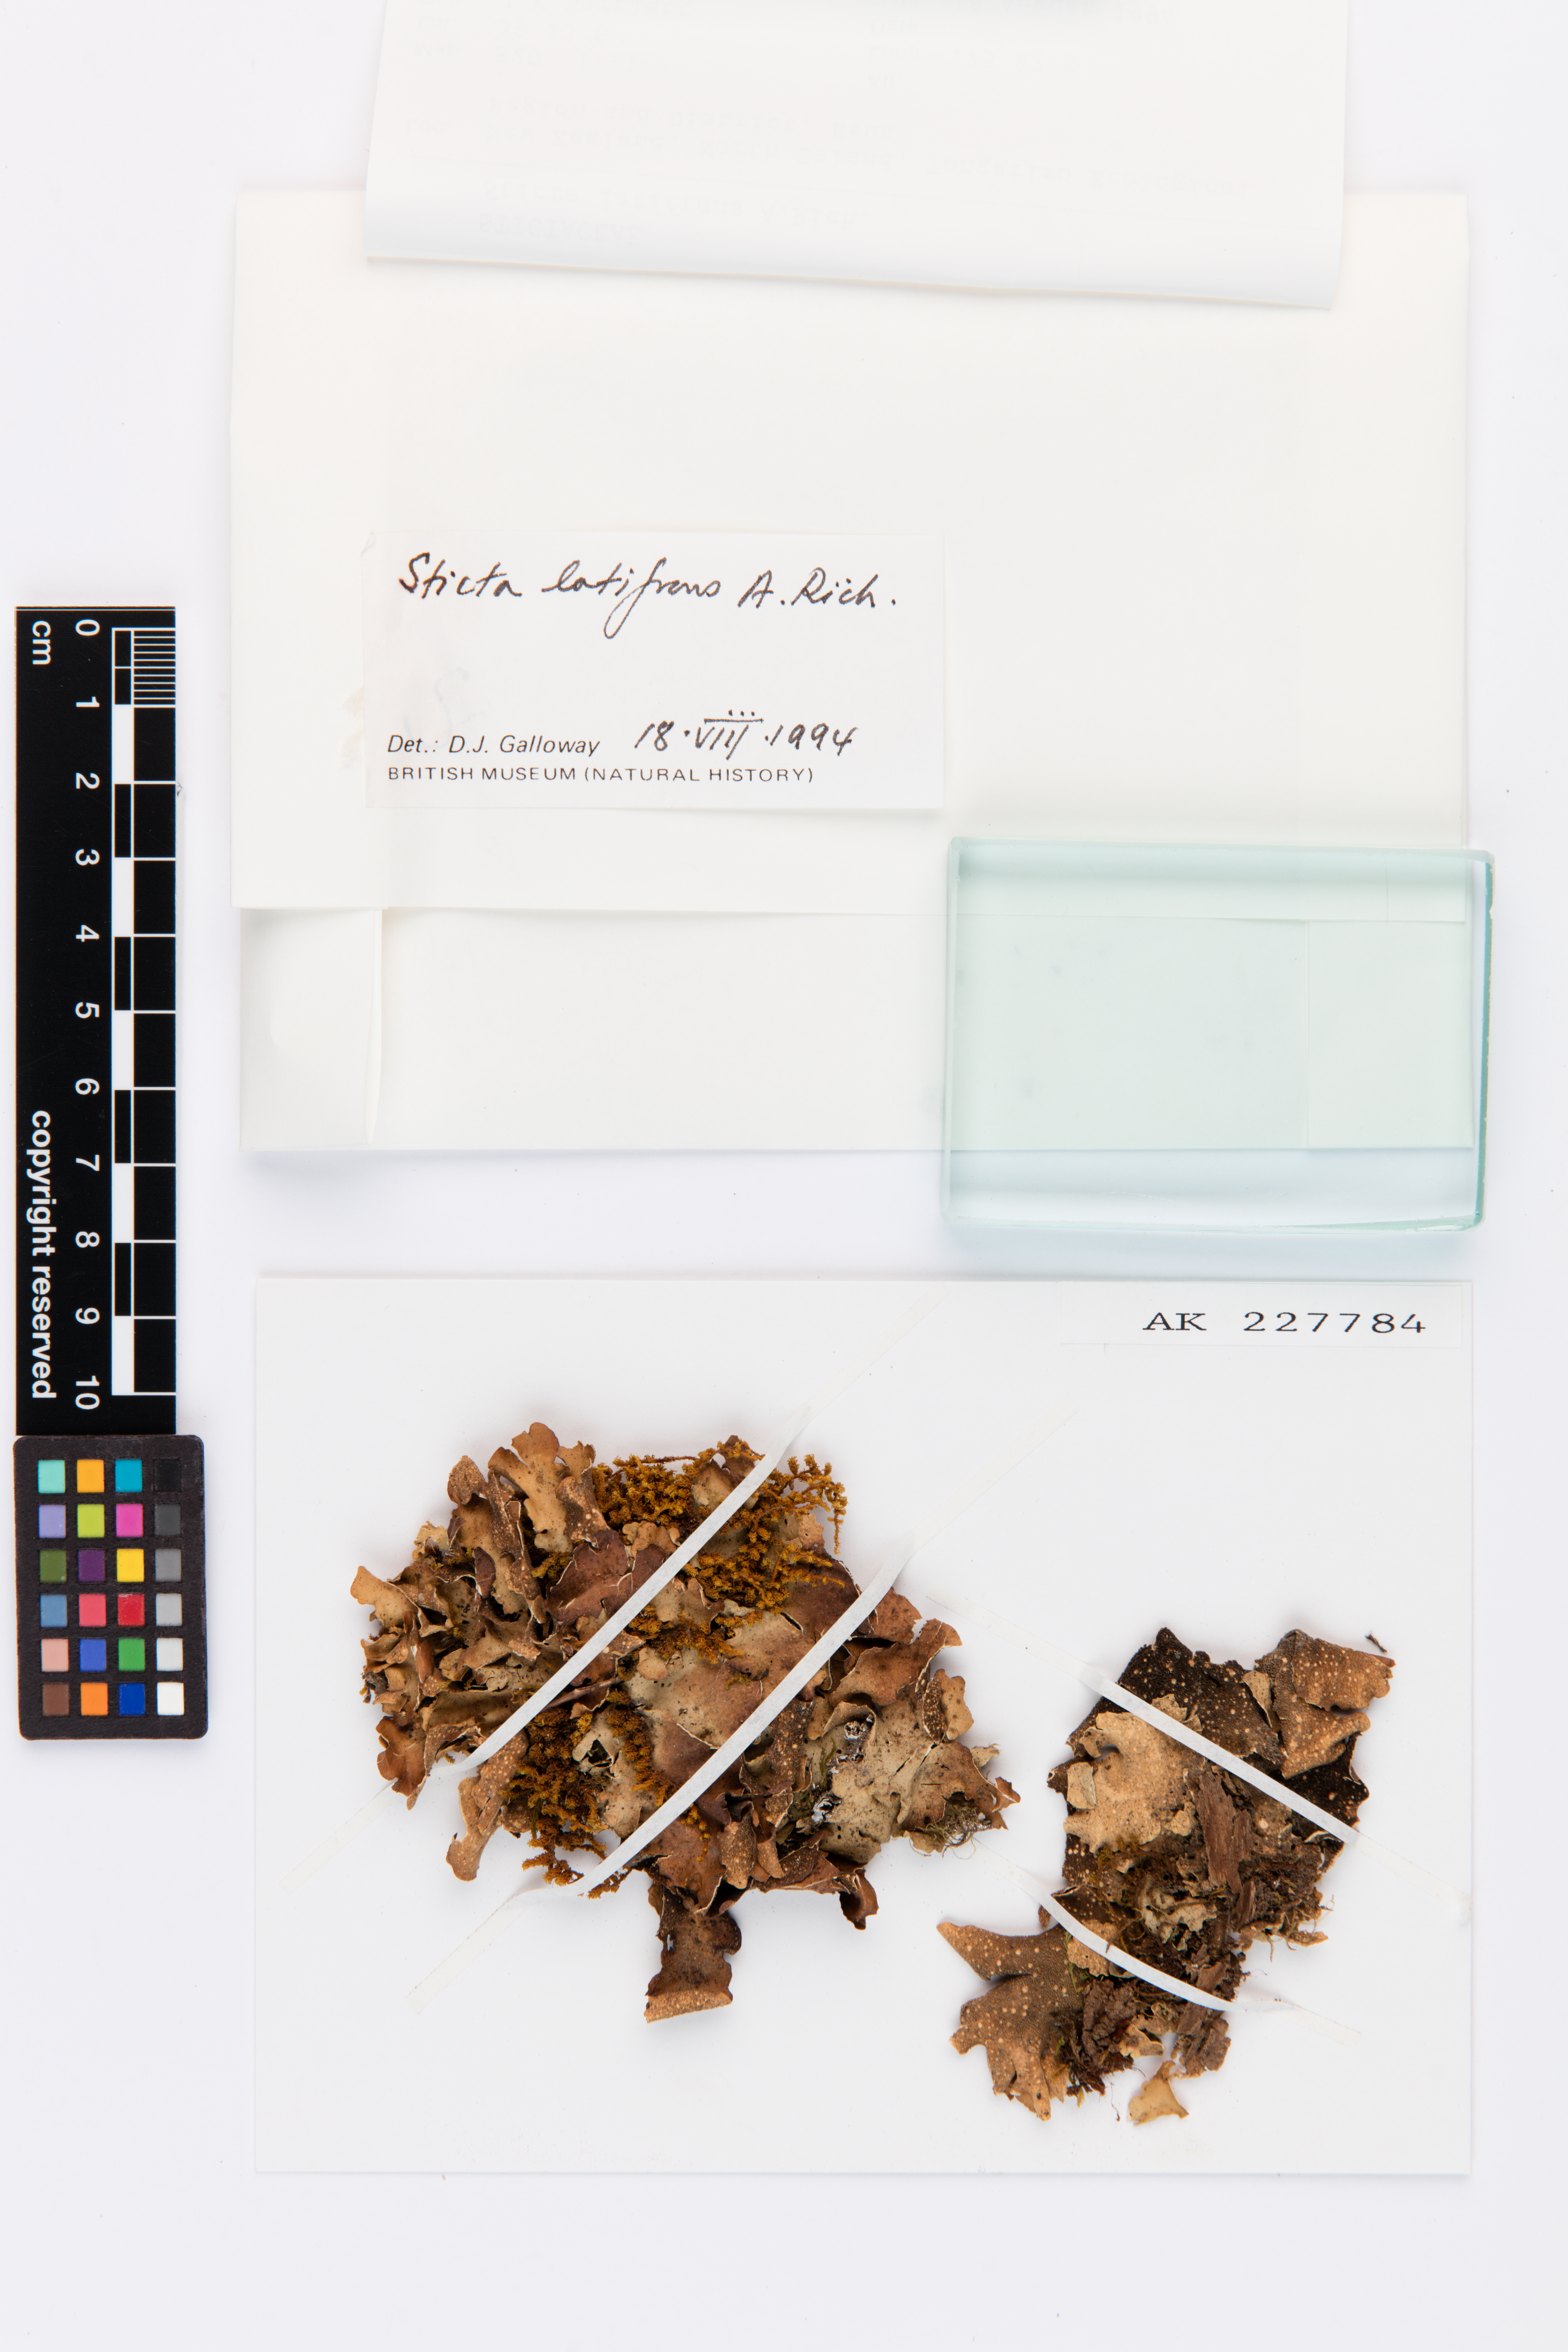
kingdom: Plantae
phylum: Tracheophyta
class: Magnoliopsida
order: Caryophyllales
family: Polygonaceae
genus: Muehlenbeckia
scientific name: Muehlenbeckia complexa
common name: Wireplant
